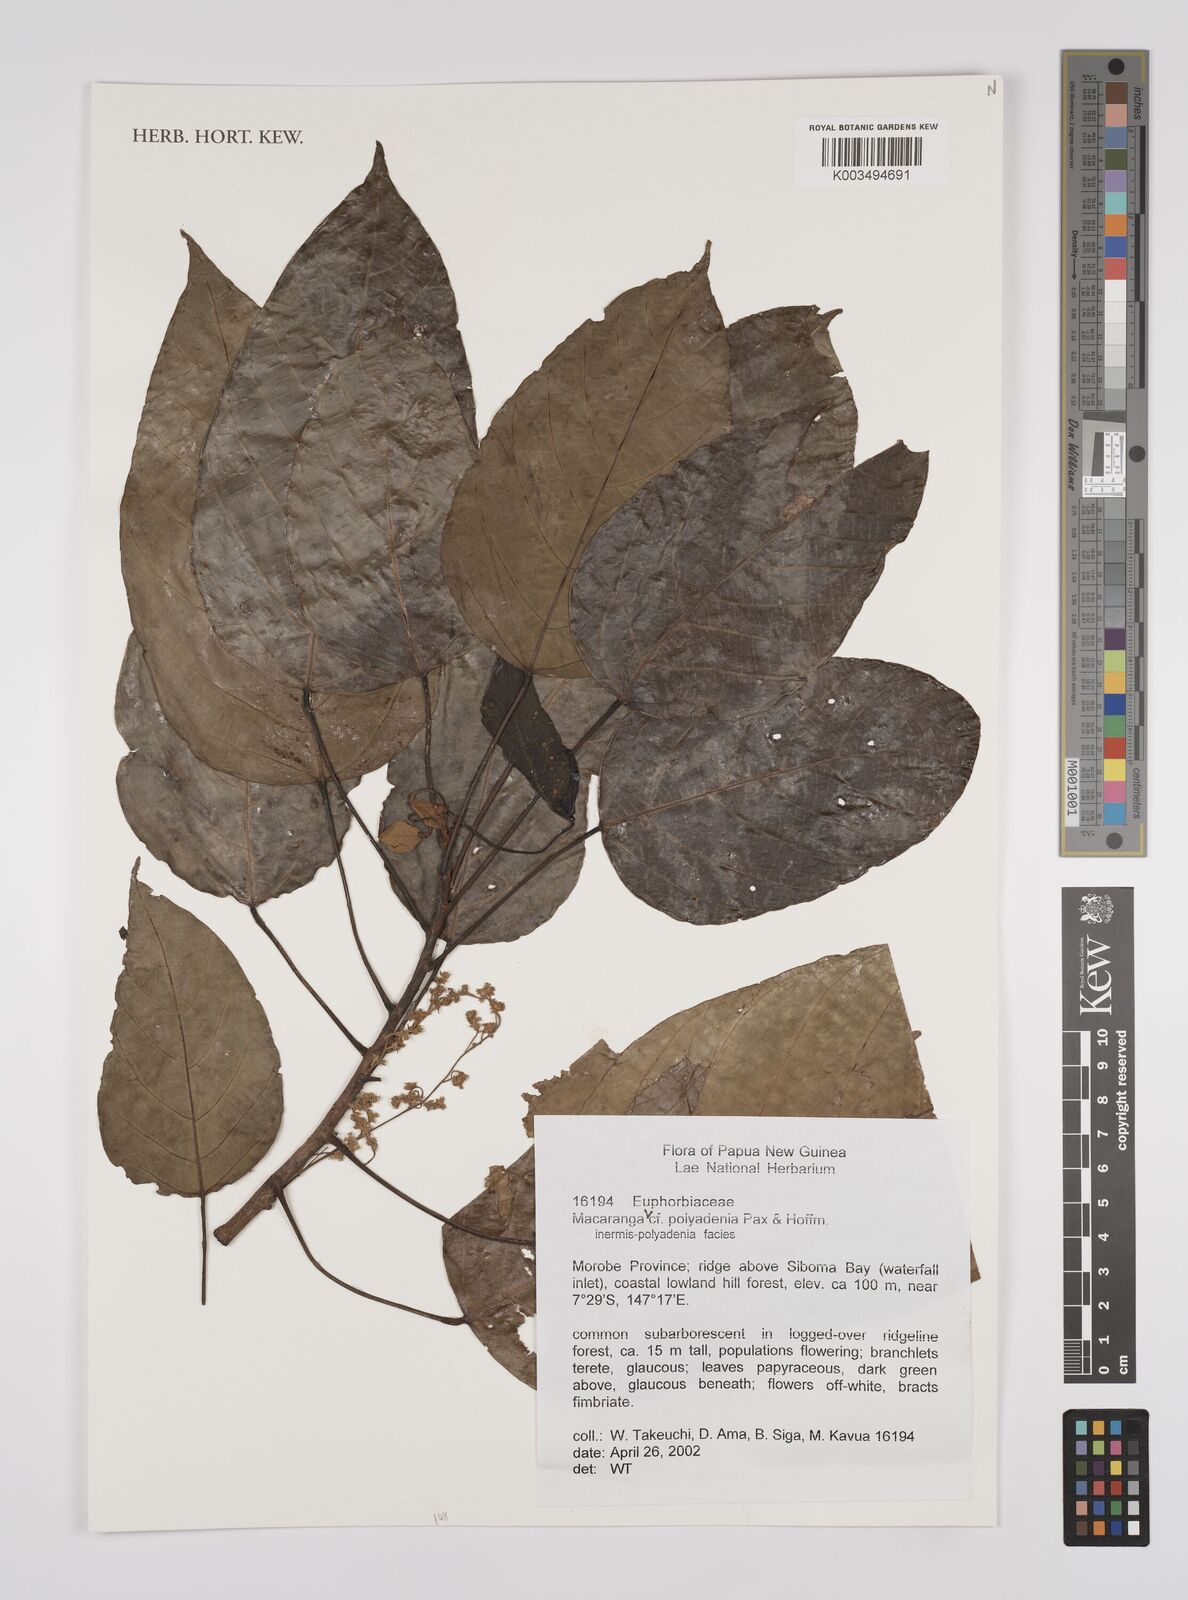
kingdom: Plantae
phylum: Tracheophyta
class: Magnoliopsida
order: Malpighiales
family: Euphorbiaceae
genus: Macaranga
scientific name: Macaranga polyadenia
